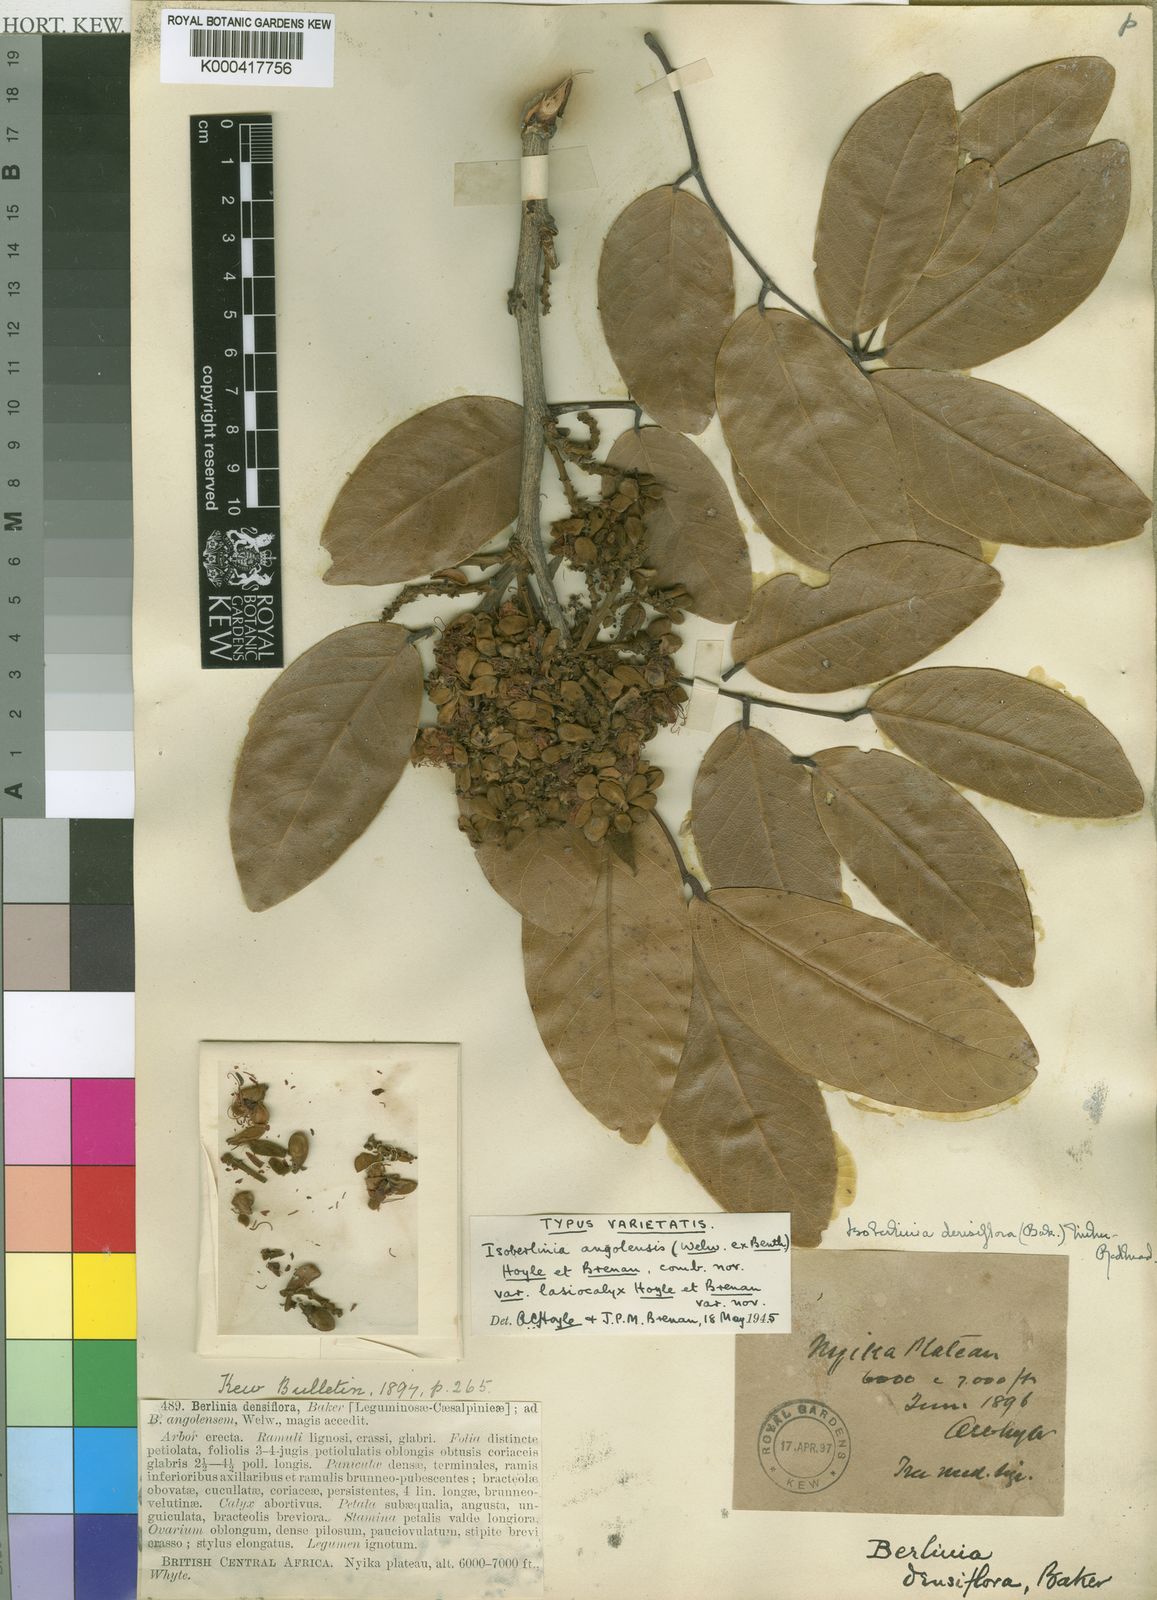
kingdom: Plantae
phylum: Tracheophyta
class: Magnoliopsida
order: Fabales
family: Fabaceae
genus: Isoberlinia
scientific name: Isoberlinia angolensis
